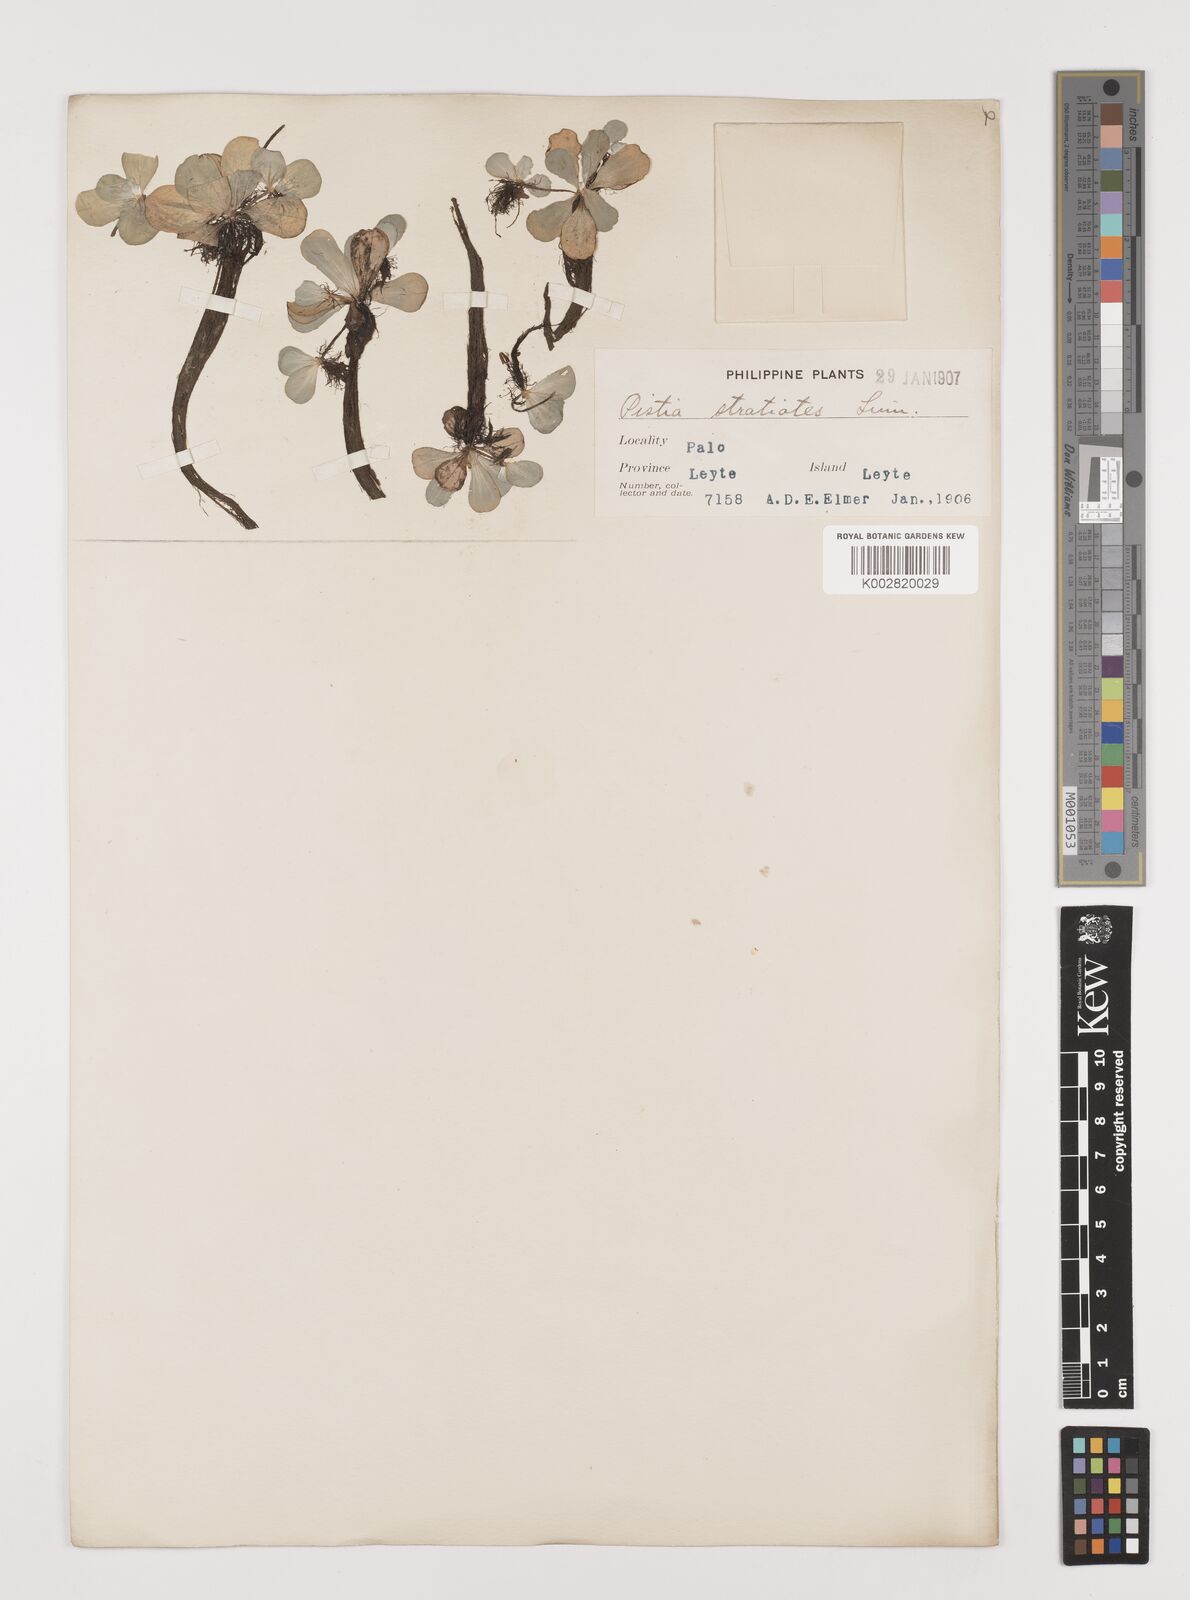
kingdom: Plantae
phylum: Tracheophyta
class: Liliopsida
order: Alismatales
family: Araceae
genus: Pistia
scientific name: Pistia stratiotes
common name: Water lettuce
